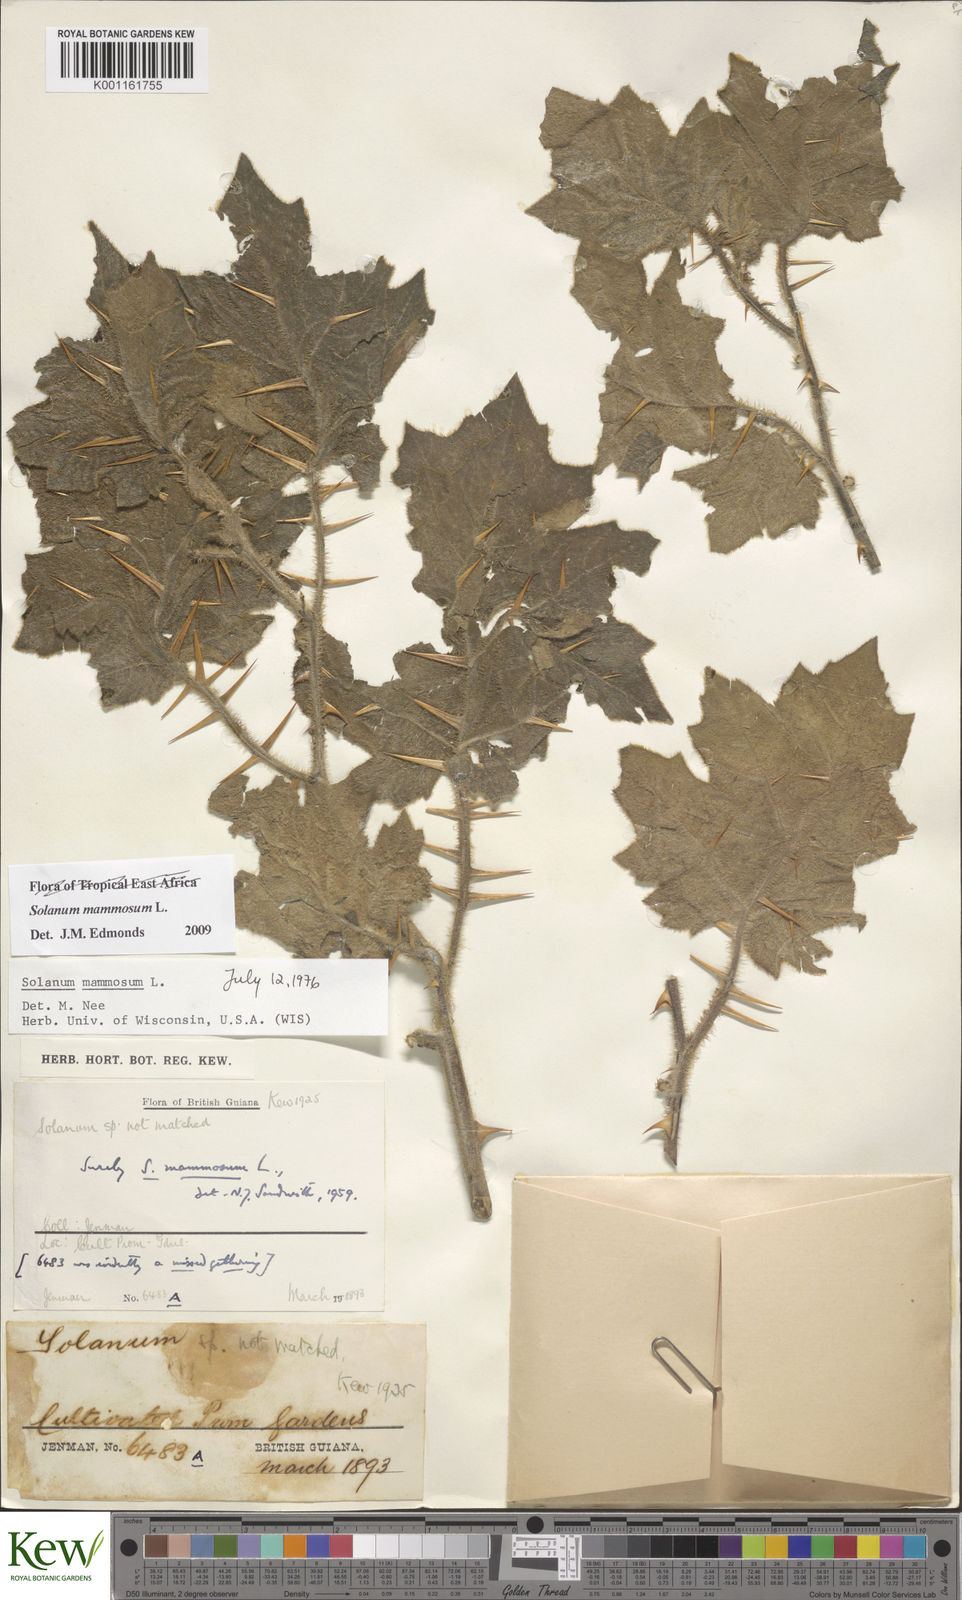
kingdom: Plantae
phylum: Tracheophyta
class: Magnoliopsida
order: Solanales
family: Solanaceae
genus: Solanum
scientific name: Solanum mammosum
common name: Nipple fruit
